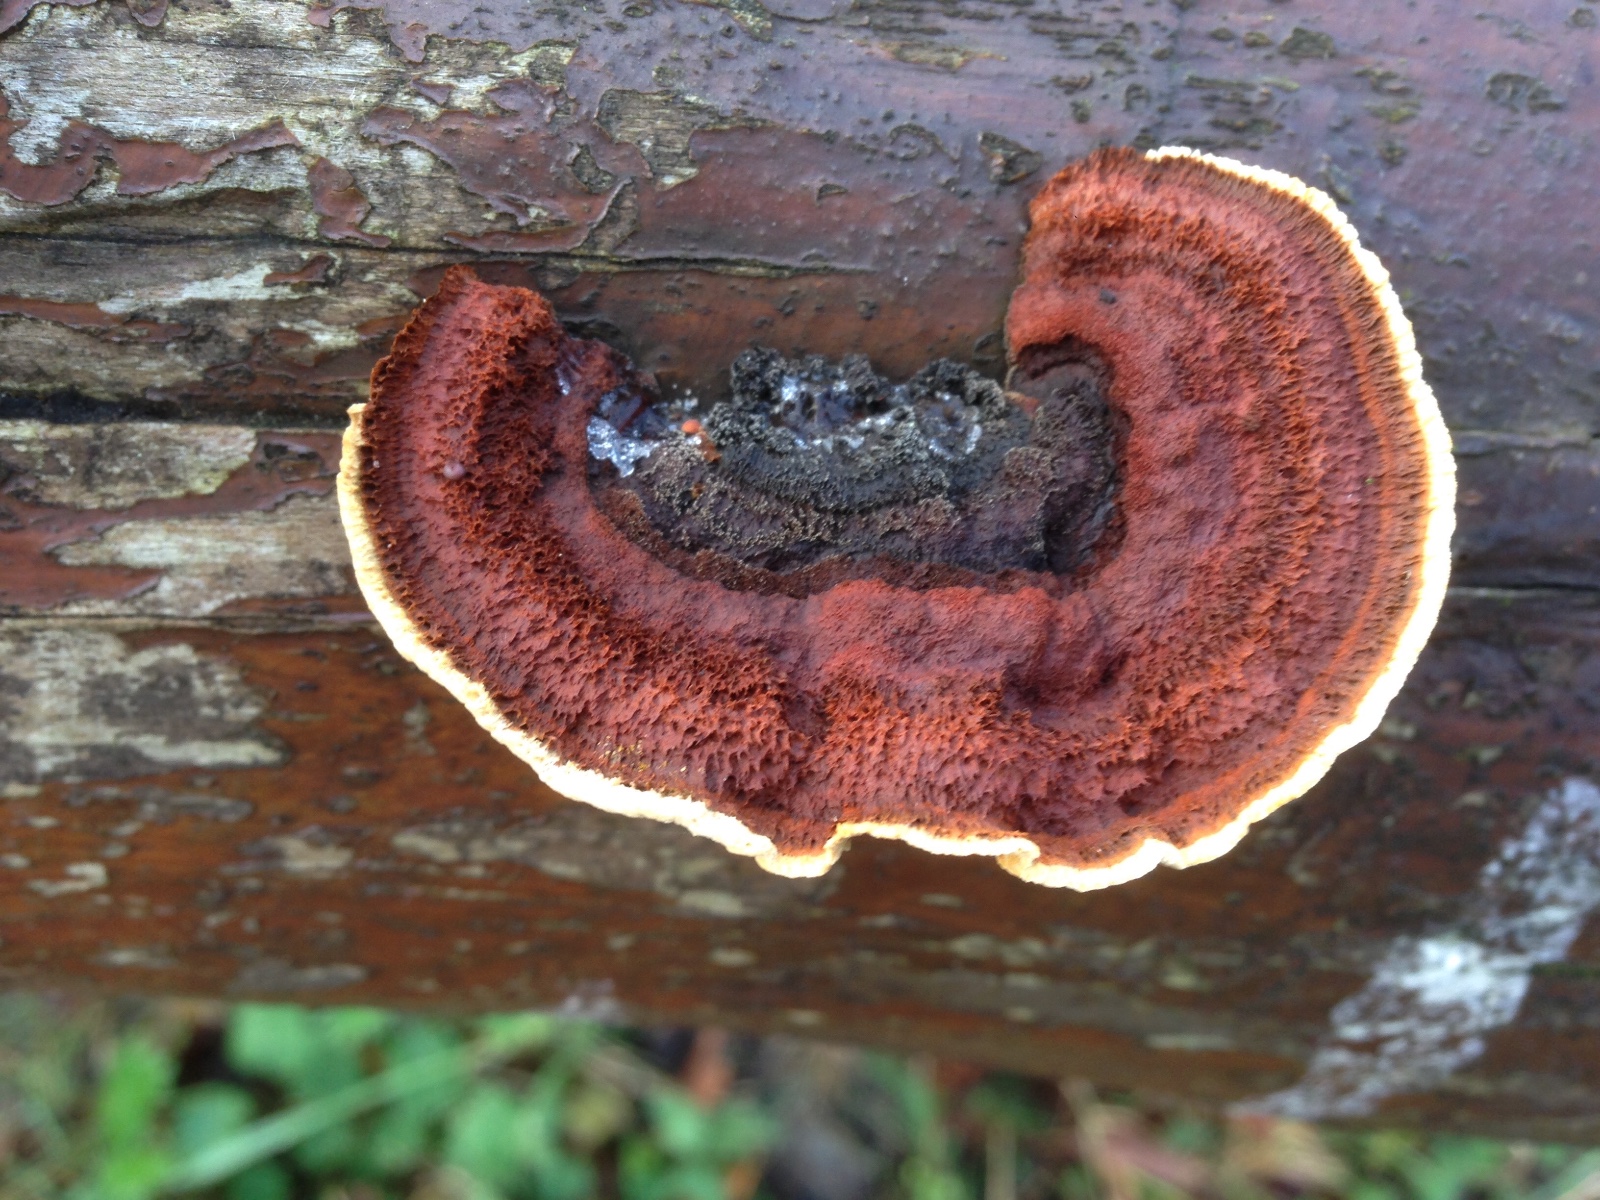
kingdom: Fungi
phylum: Basidiomycota
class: Agaricomycetes
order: Gloeophyllales
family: Gloeophyllaceae
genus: Gloeophyllum
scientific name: Gloeophyllum sepiarium
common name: fyrre-korkhat
